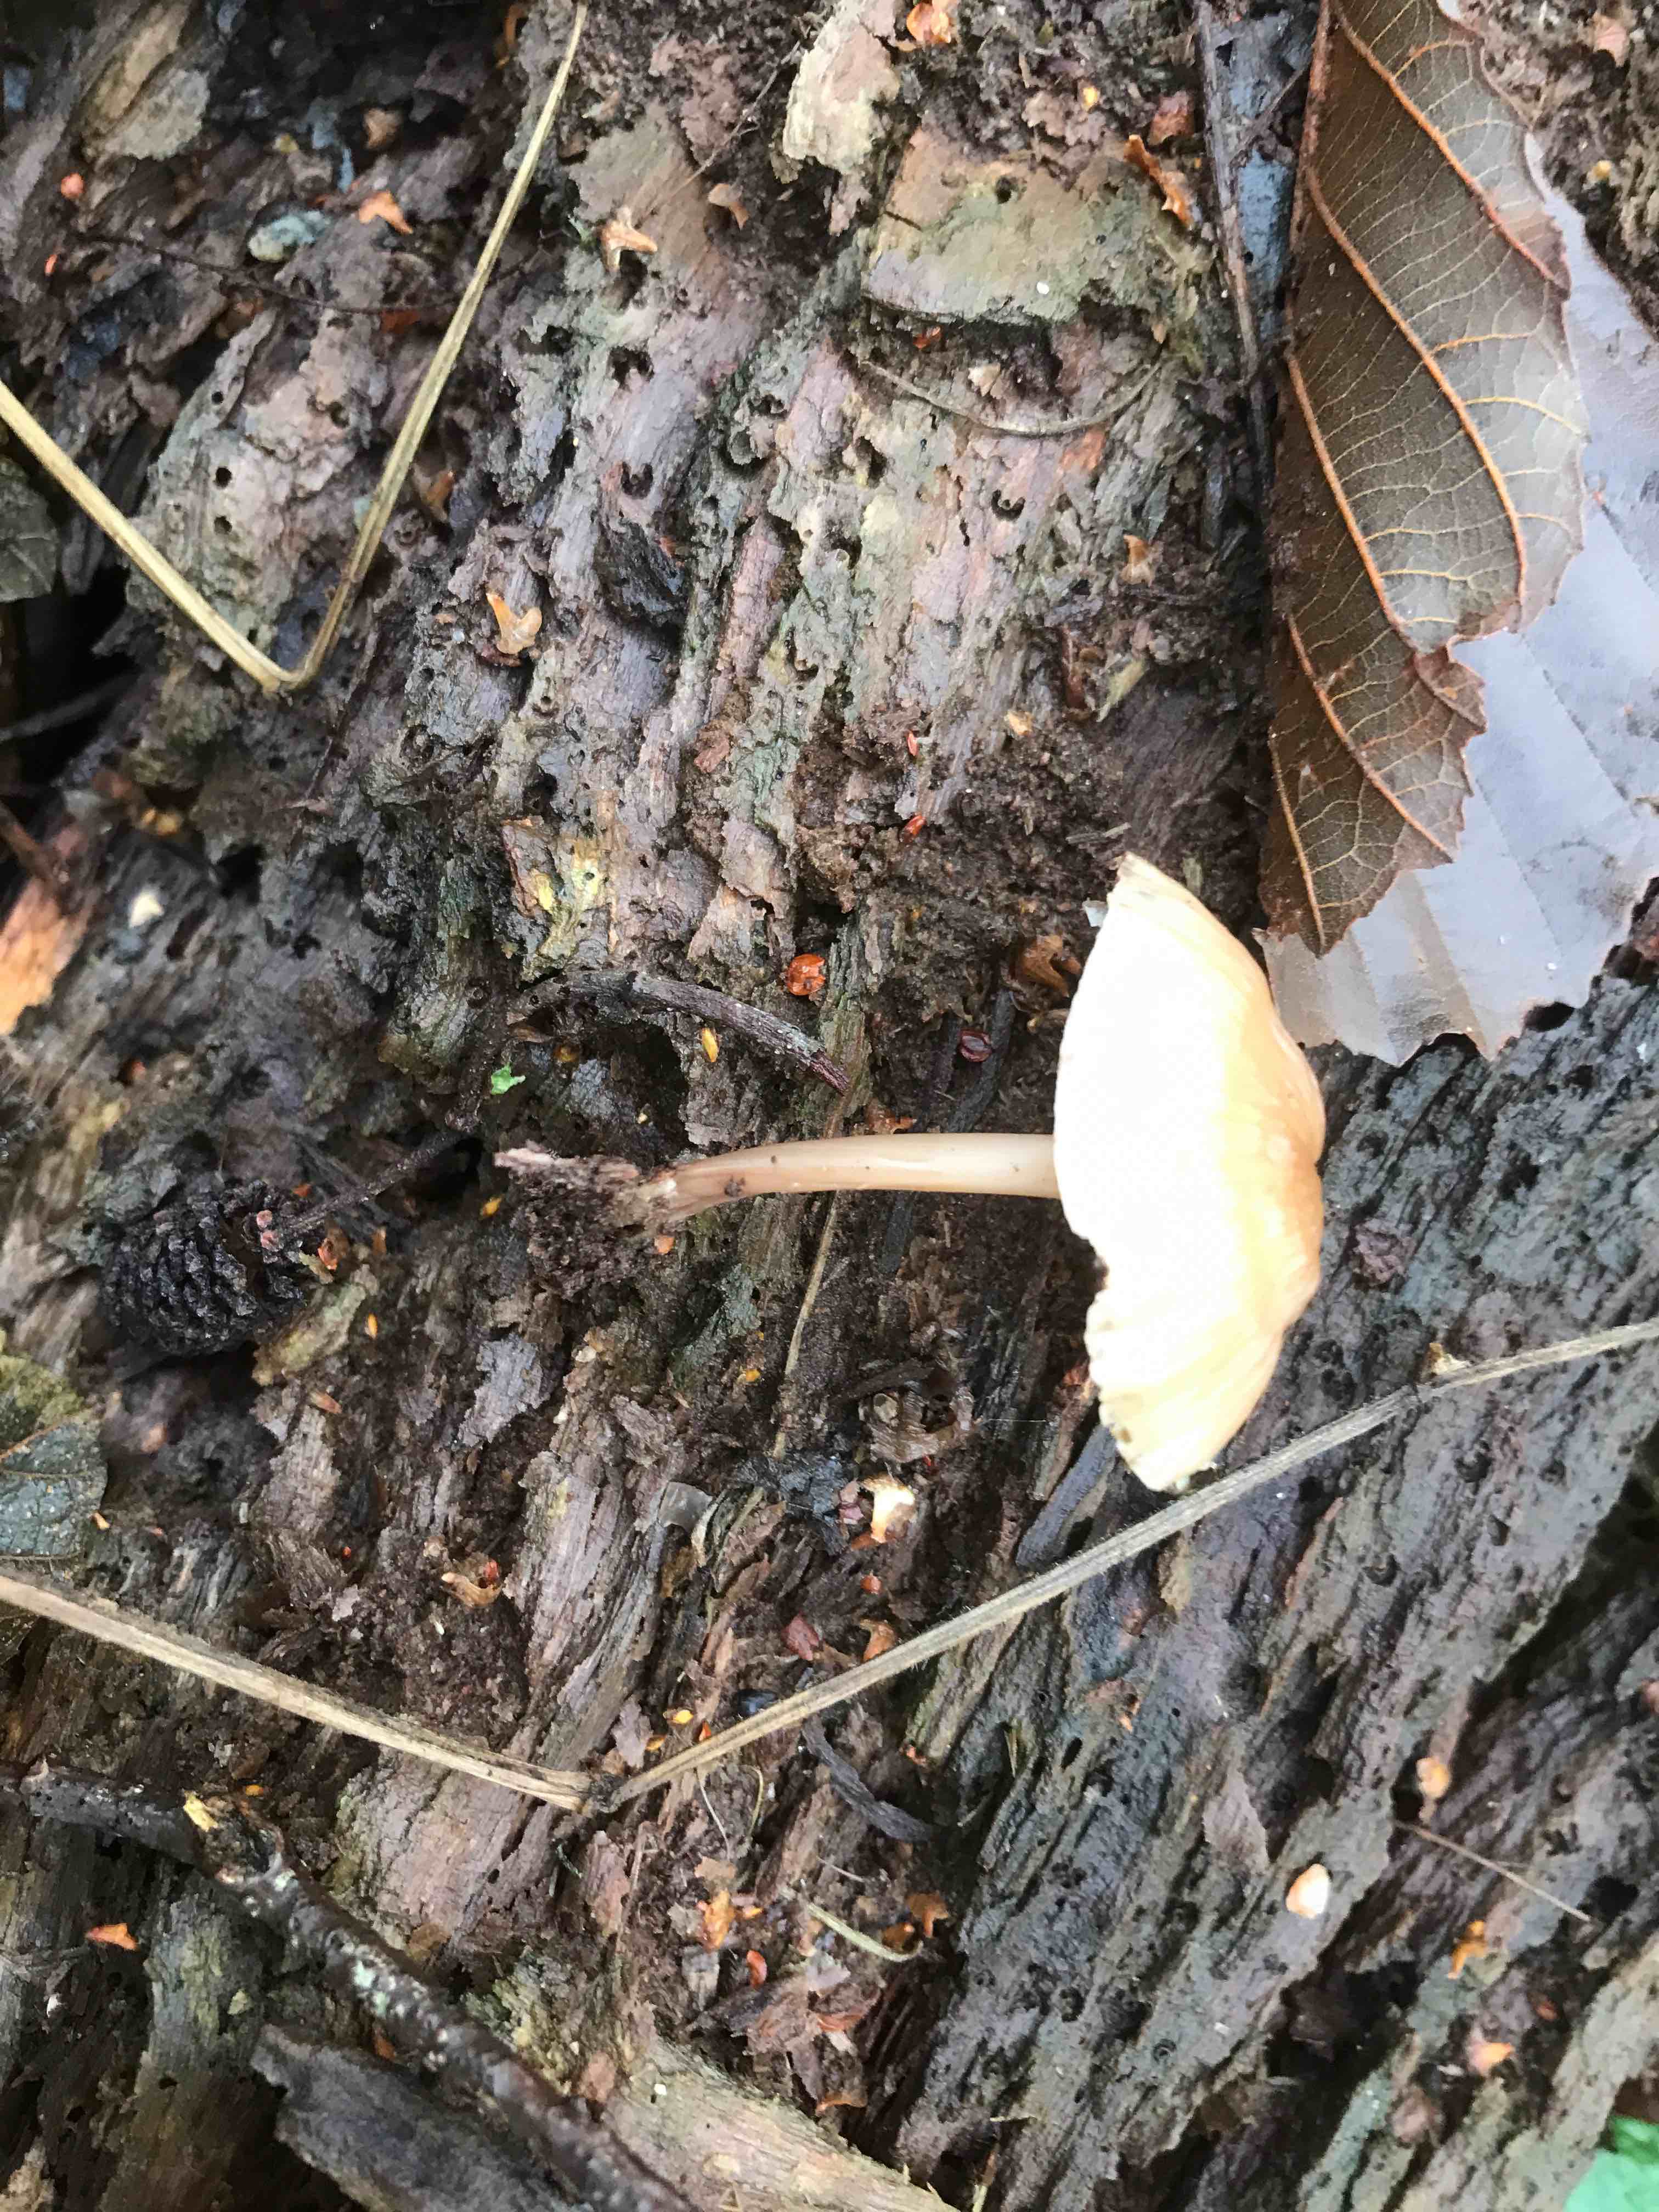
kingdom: Fungi
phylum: Basidiomycota
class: Agaricomycetes
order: Agaricales
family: Mycenaceae
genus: Mycena
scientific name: Mycena galericulata
